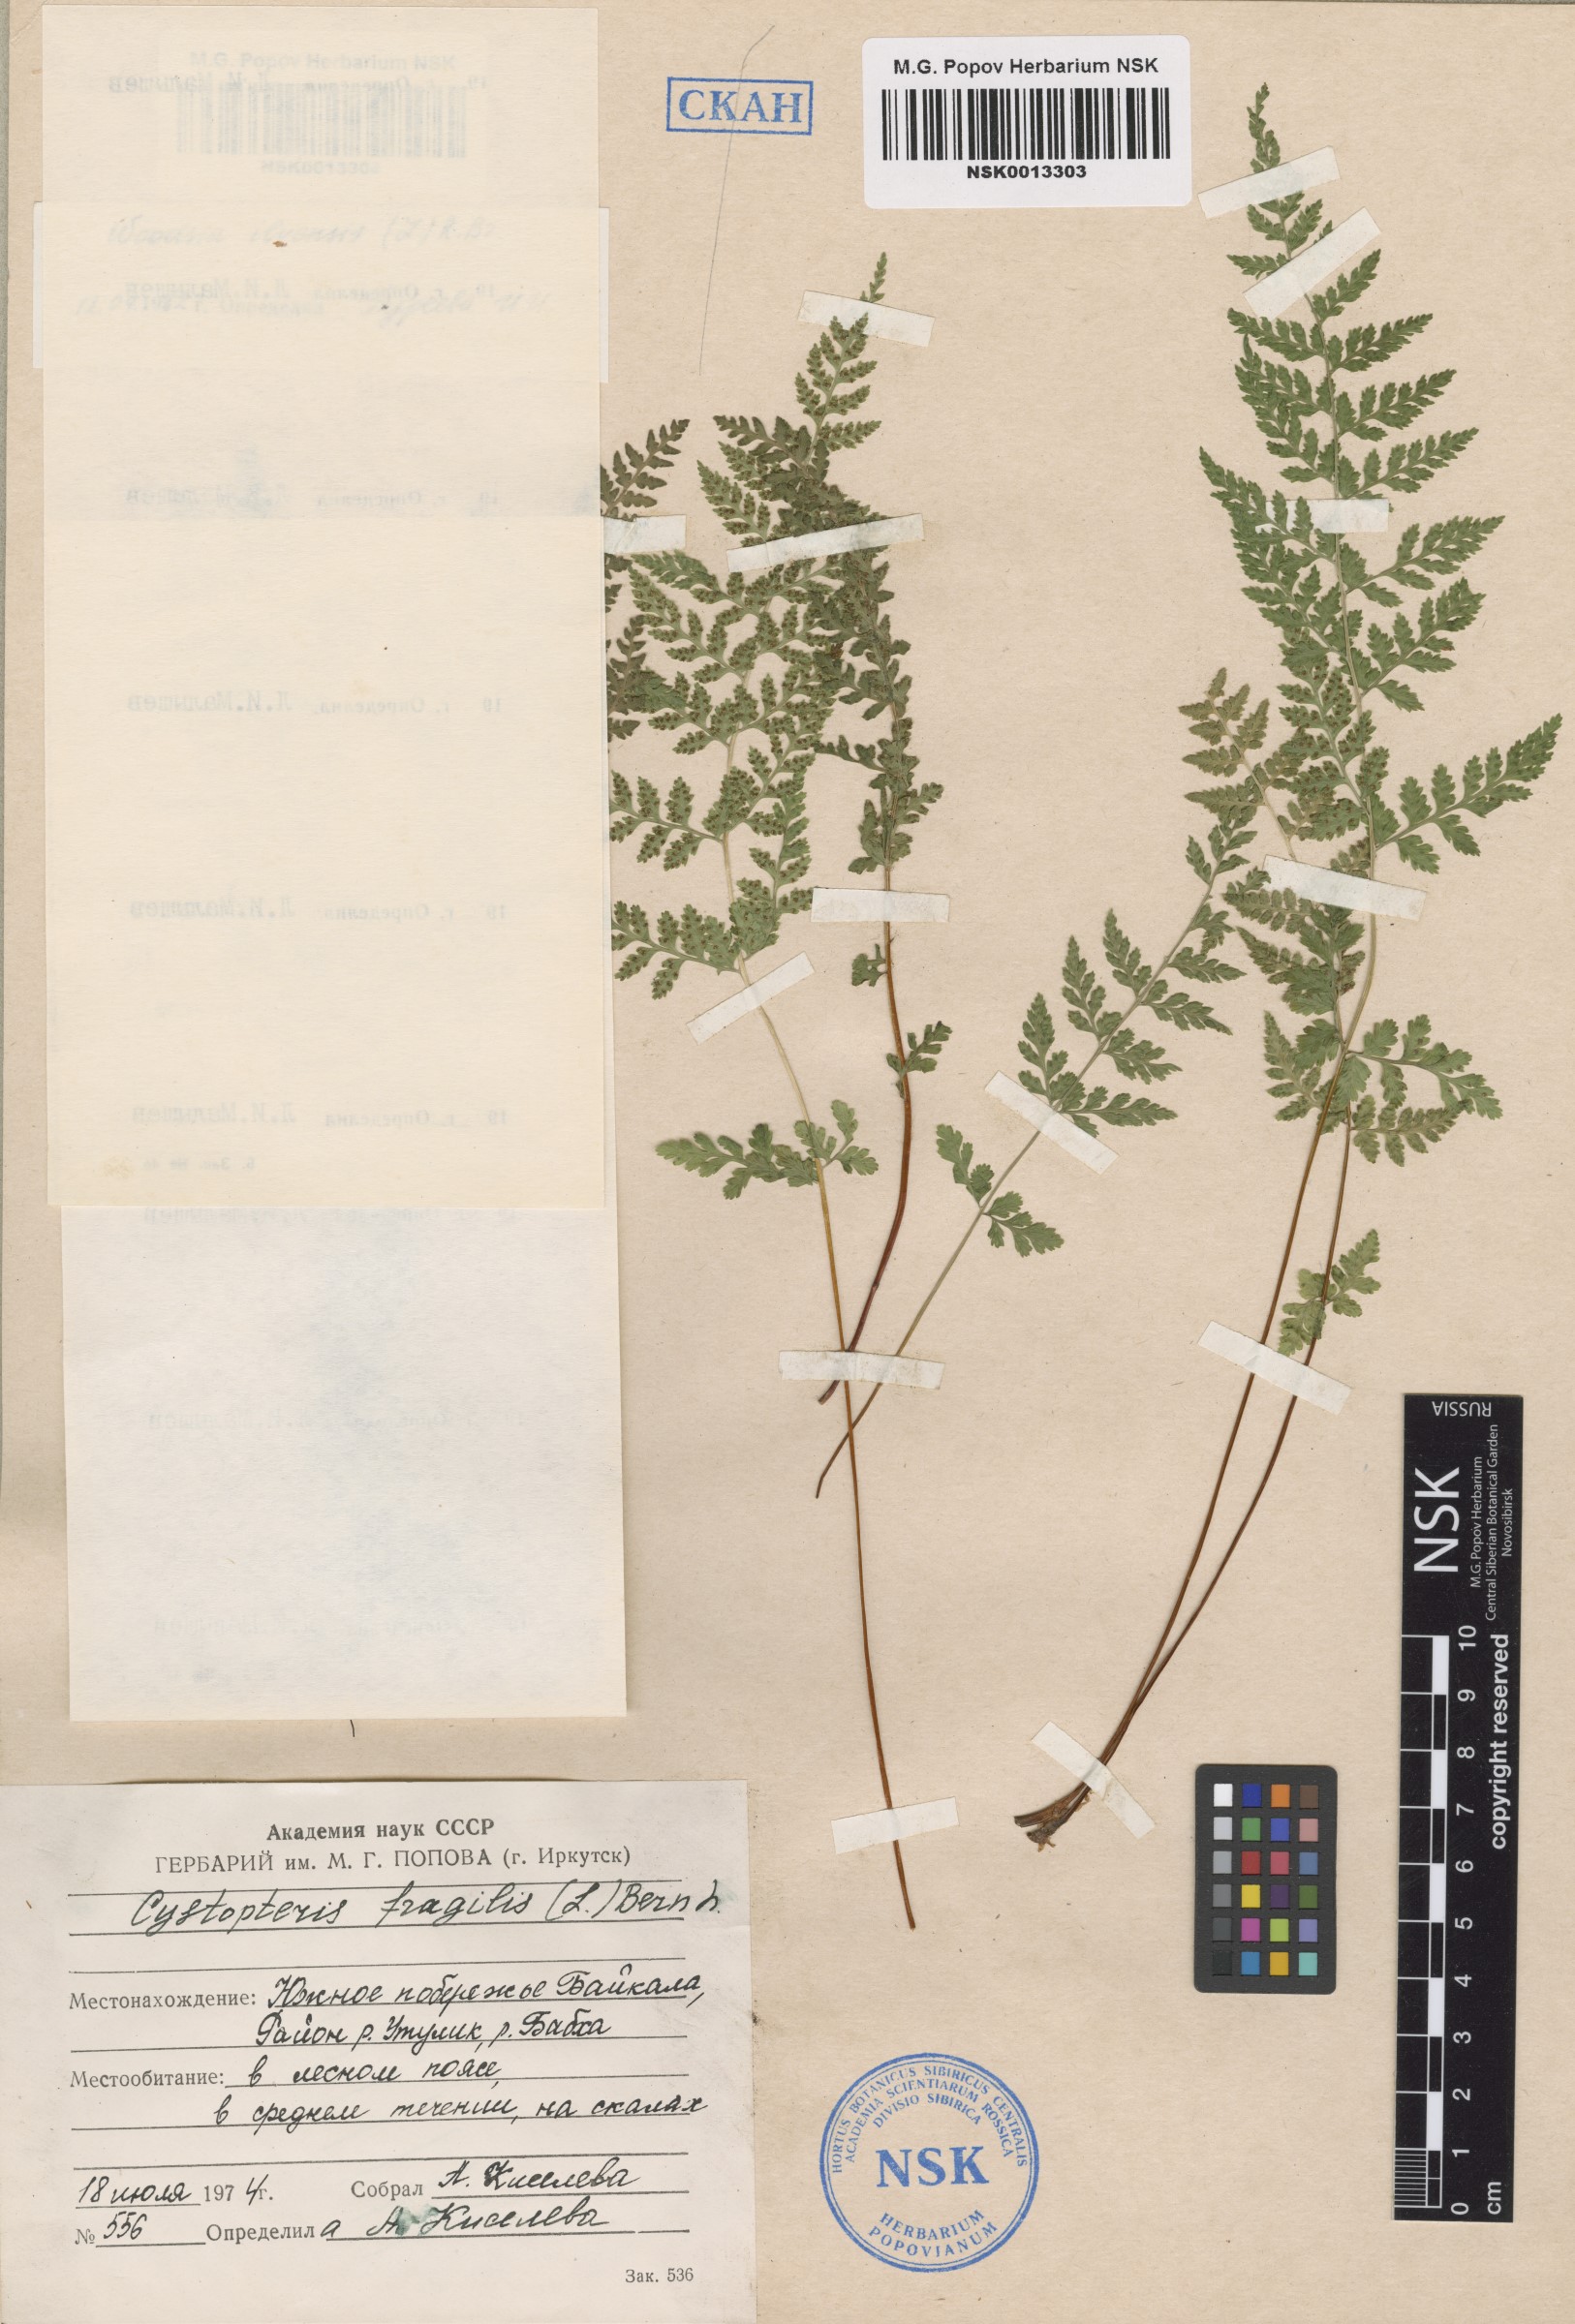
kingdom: Plantae
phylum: Tracheophyta
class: Polypodiopsida
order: Polypodiales
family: Cystopteridaceae
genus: Cystopteris
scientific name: Cystopteris fragilis
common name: Brittle bladder fern
